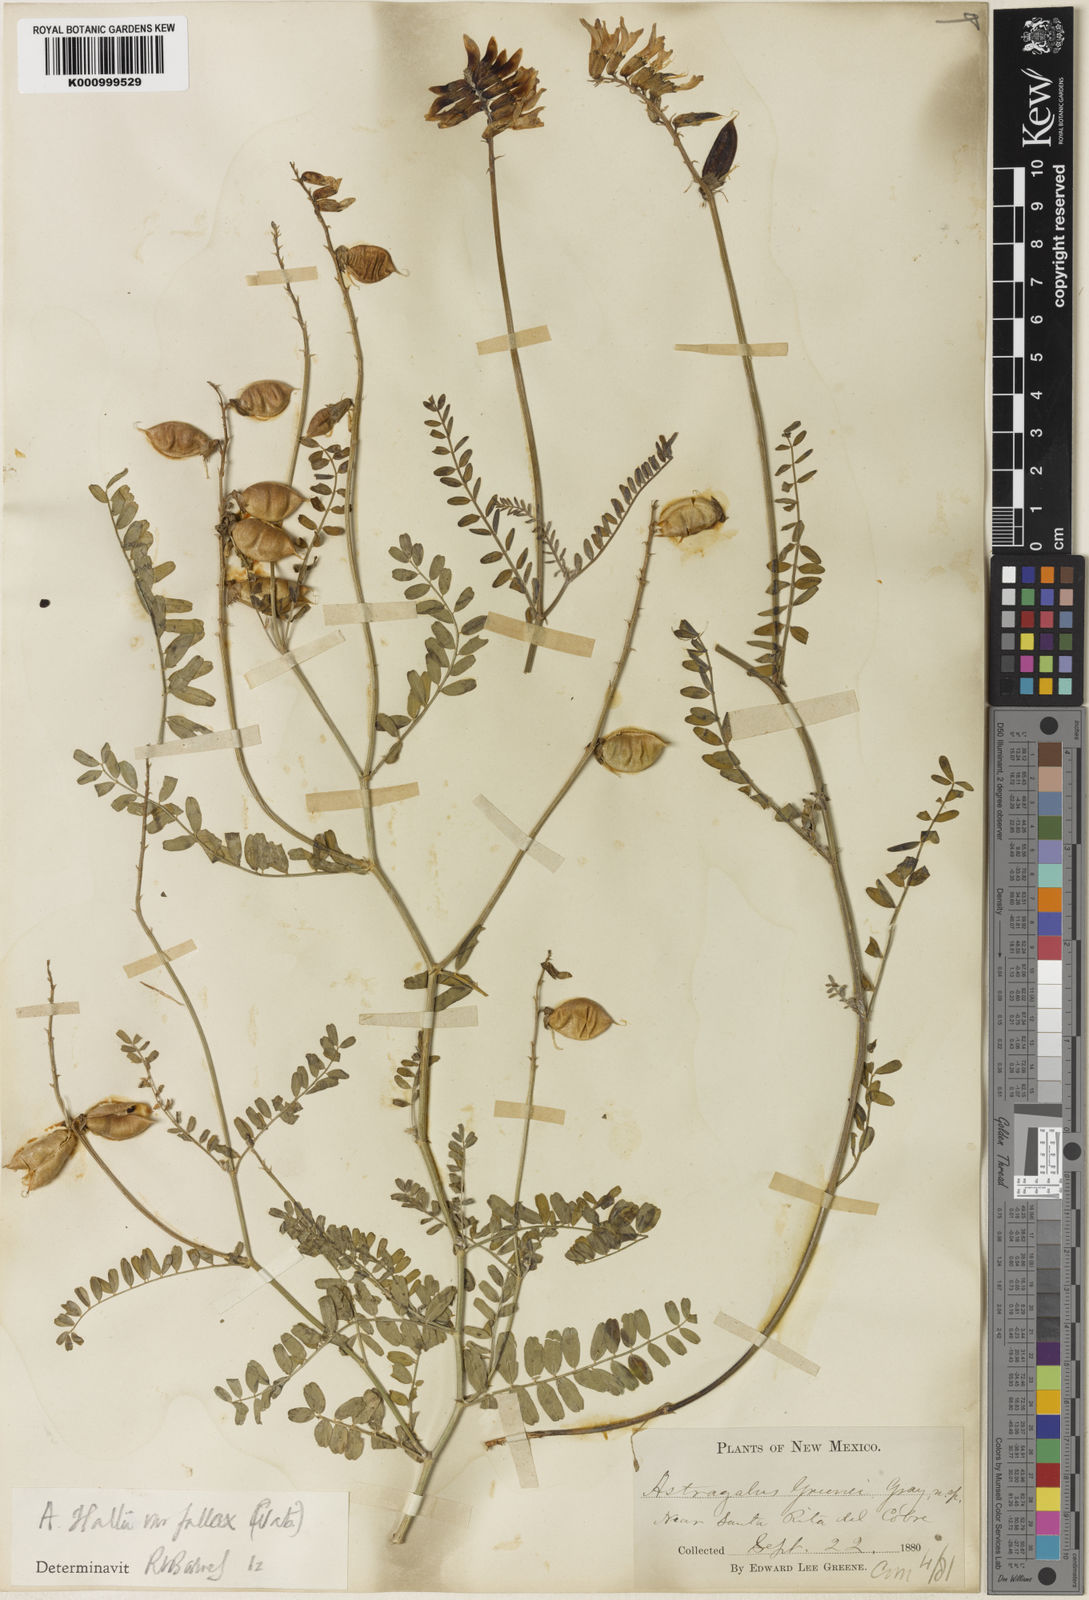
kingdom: Plantae
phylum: Tracheophyta
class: Magnoliopsida
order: Fabales
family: Fabaceae
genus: Astragalus
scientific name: Astragalus flexuosus
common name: Pliant milk-vetch
